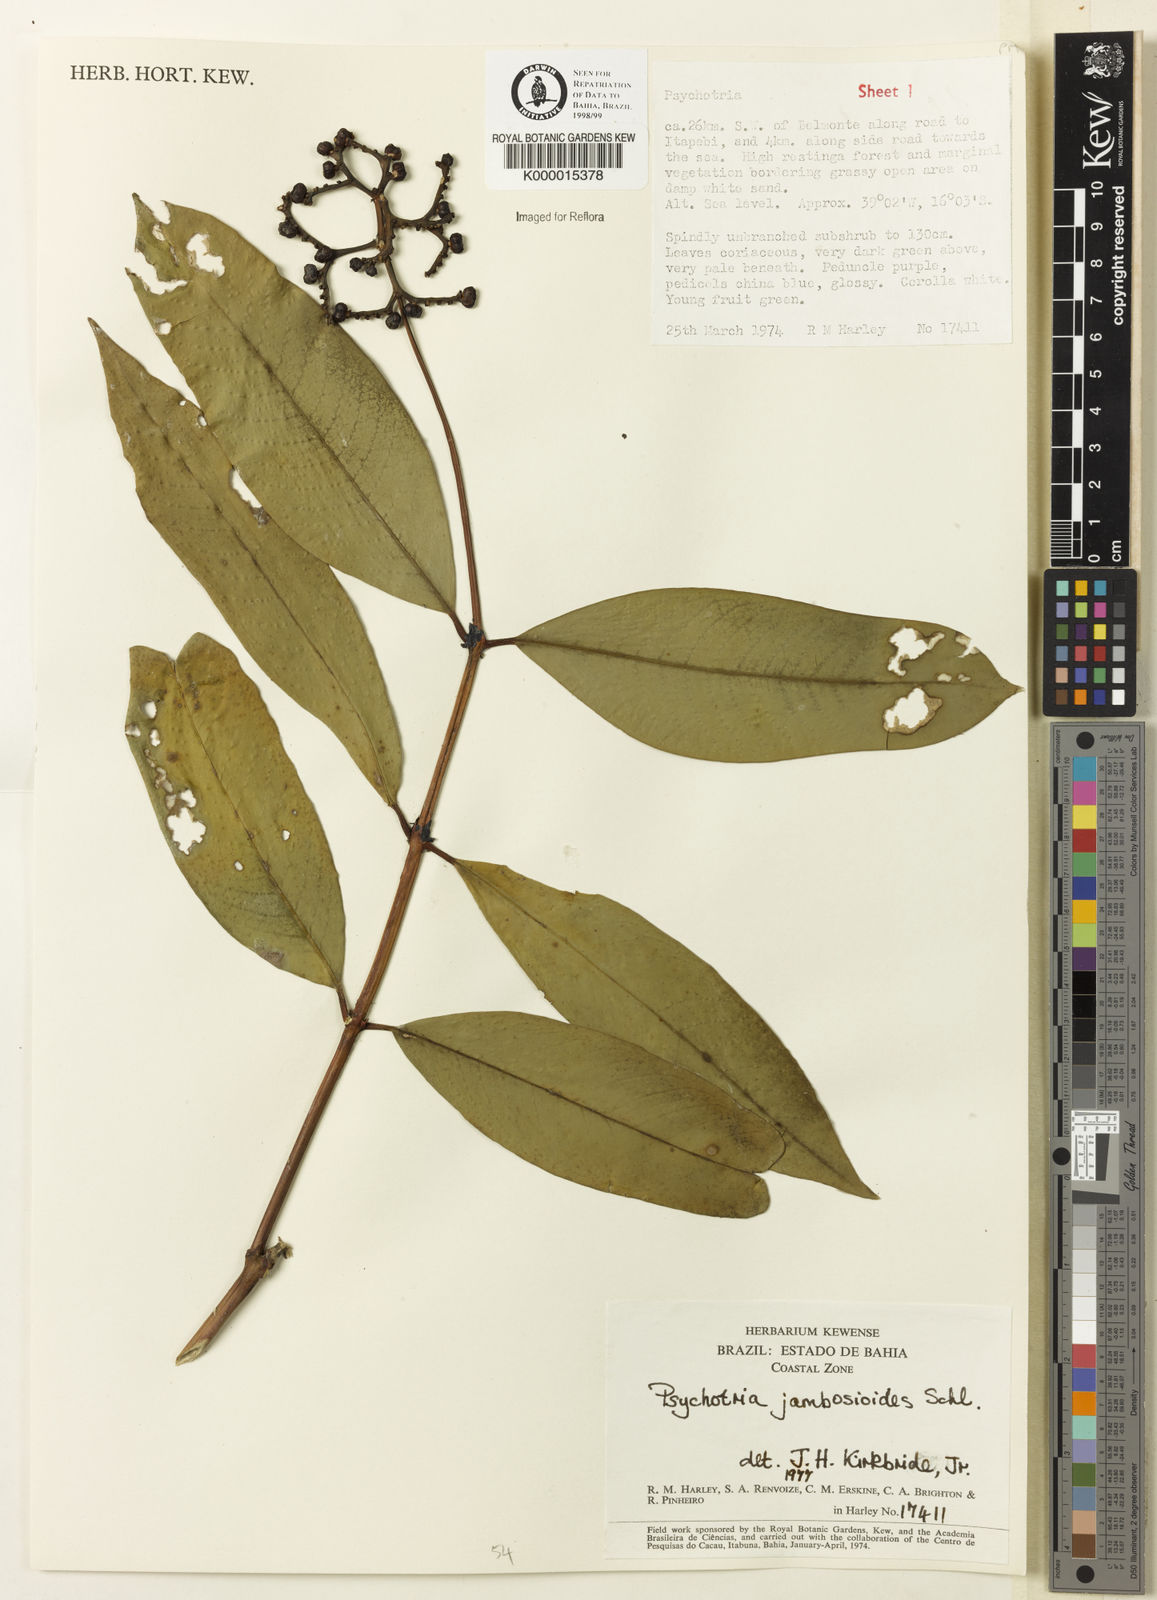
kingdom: Plantae
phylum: Tracheophyta
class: Magnoliopsida
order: Gentianales
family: Rubiaceae
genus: Palicourea
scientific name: Palicourea jambosioides
